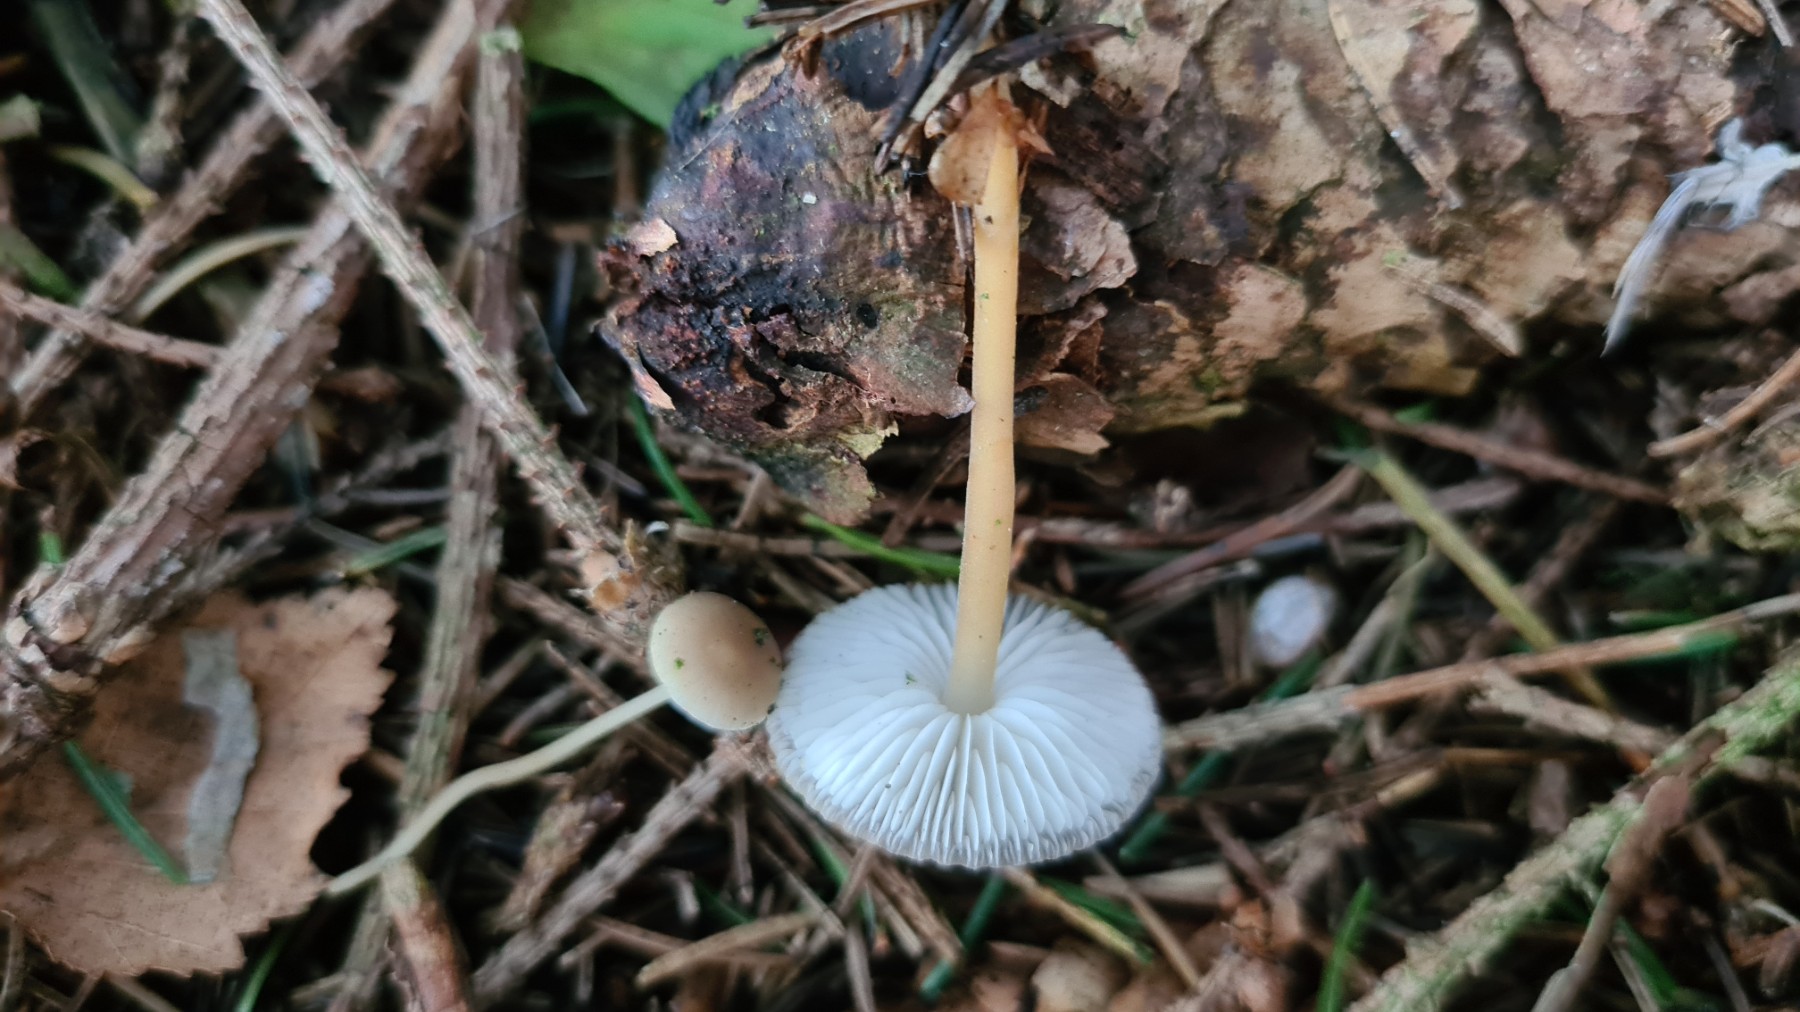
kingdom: Fungi
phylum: Basidiomycota
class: Agaricomycetes
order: Agaricales
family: Physalacriaceae
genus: Strobilurus
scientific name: Strobilurus esculentus
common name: gran-koglehat
